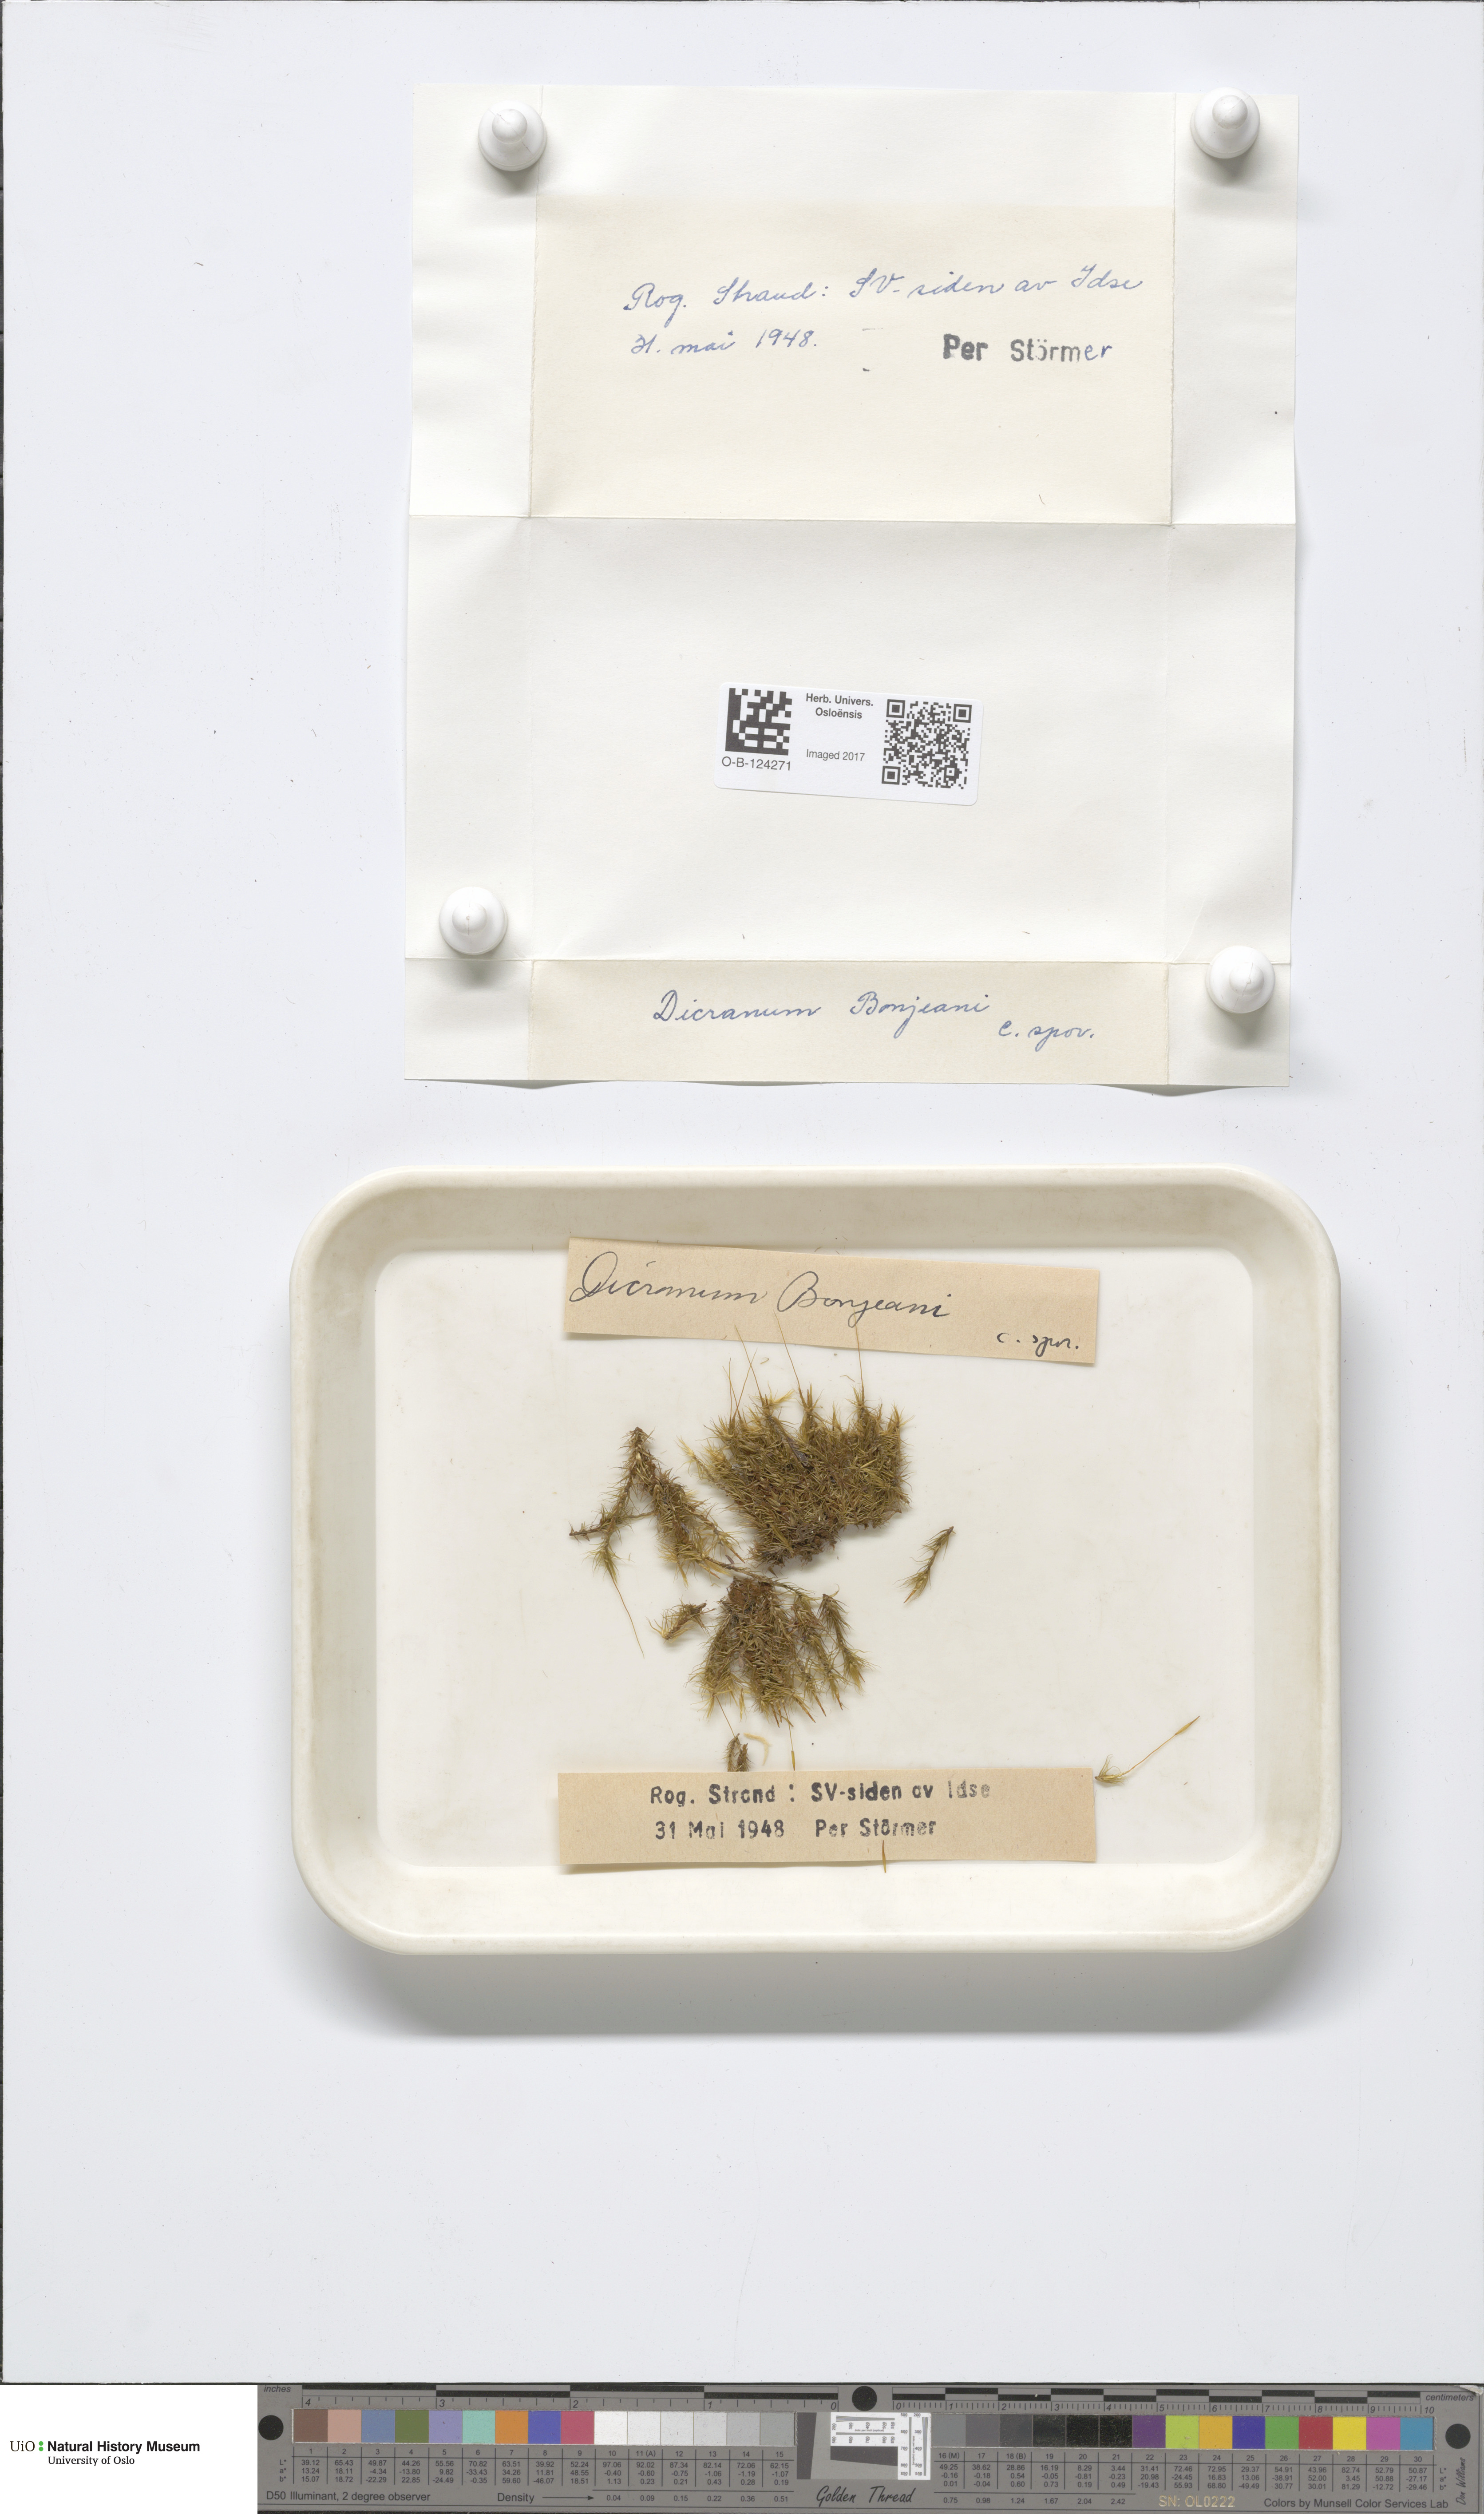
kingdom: Plantae
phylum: Bryophyta
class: Bryopsida
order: Dicranales
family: Dicranaceae
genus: Dicranum
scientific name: Dicranum bonjeanii
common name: Bonjean's broom moss
